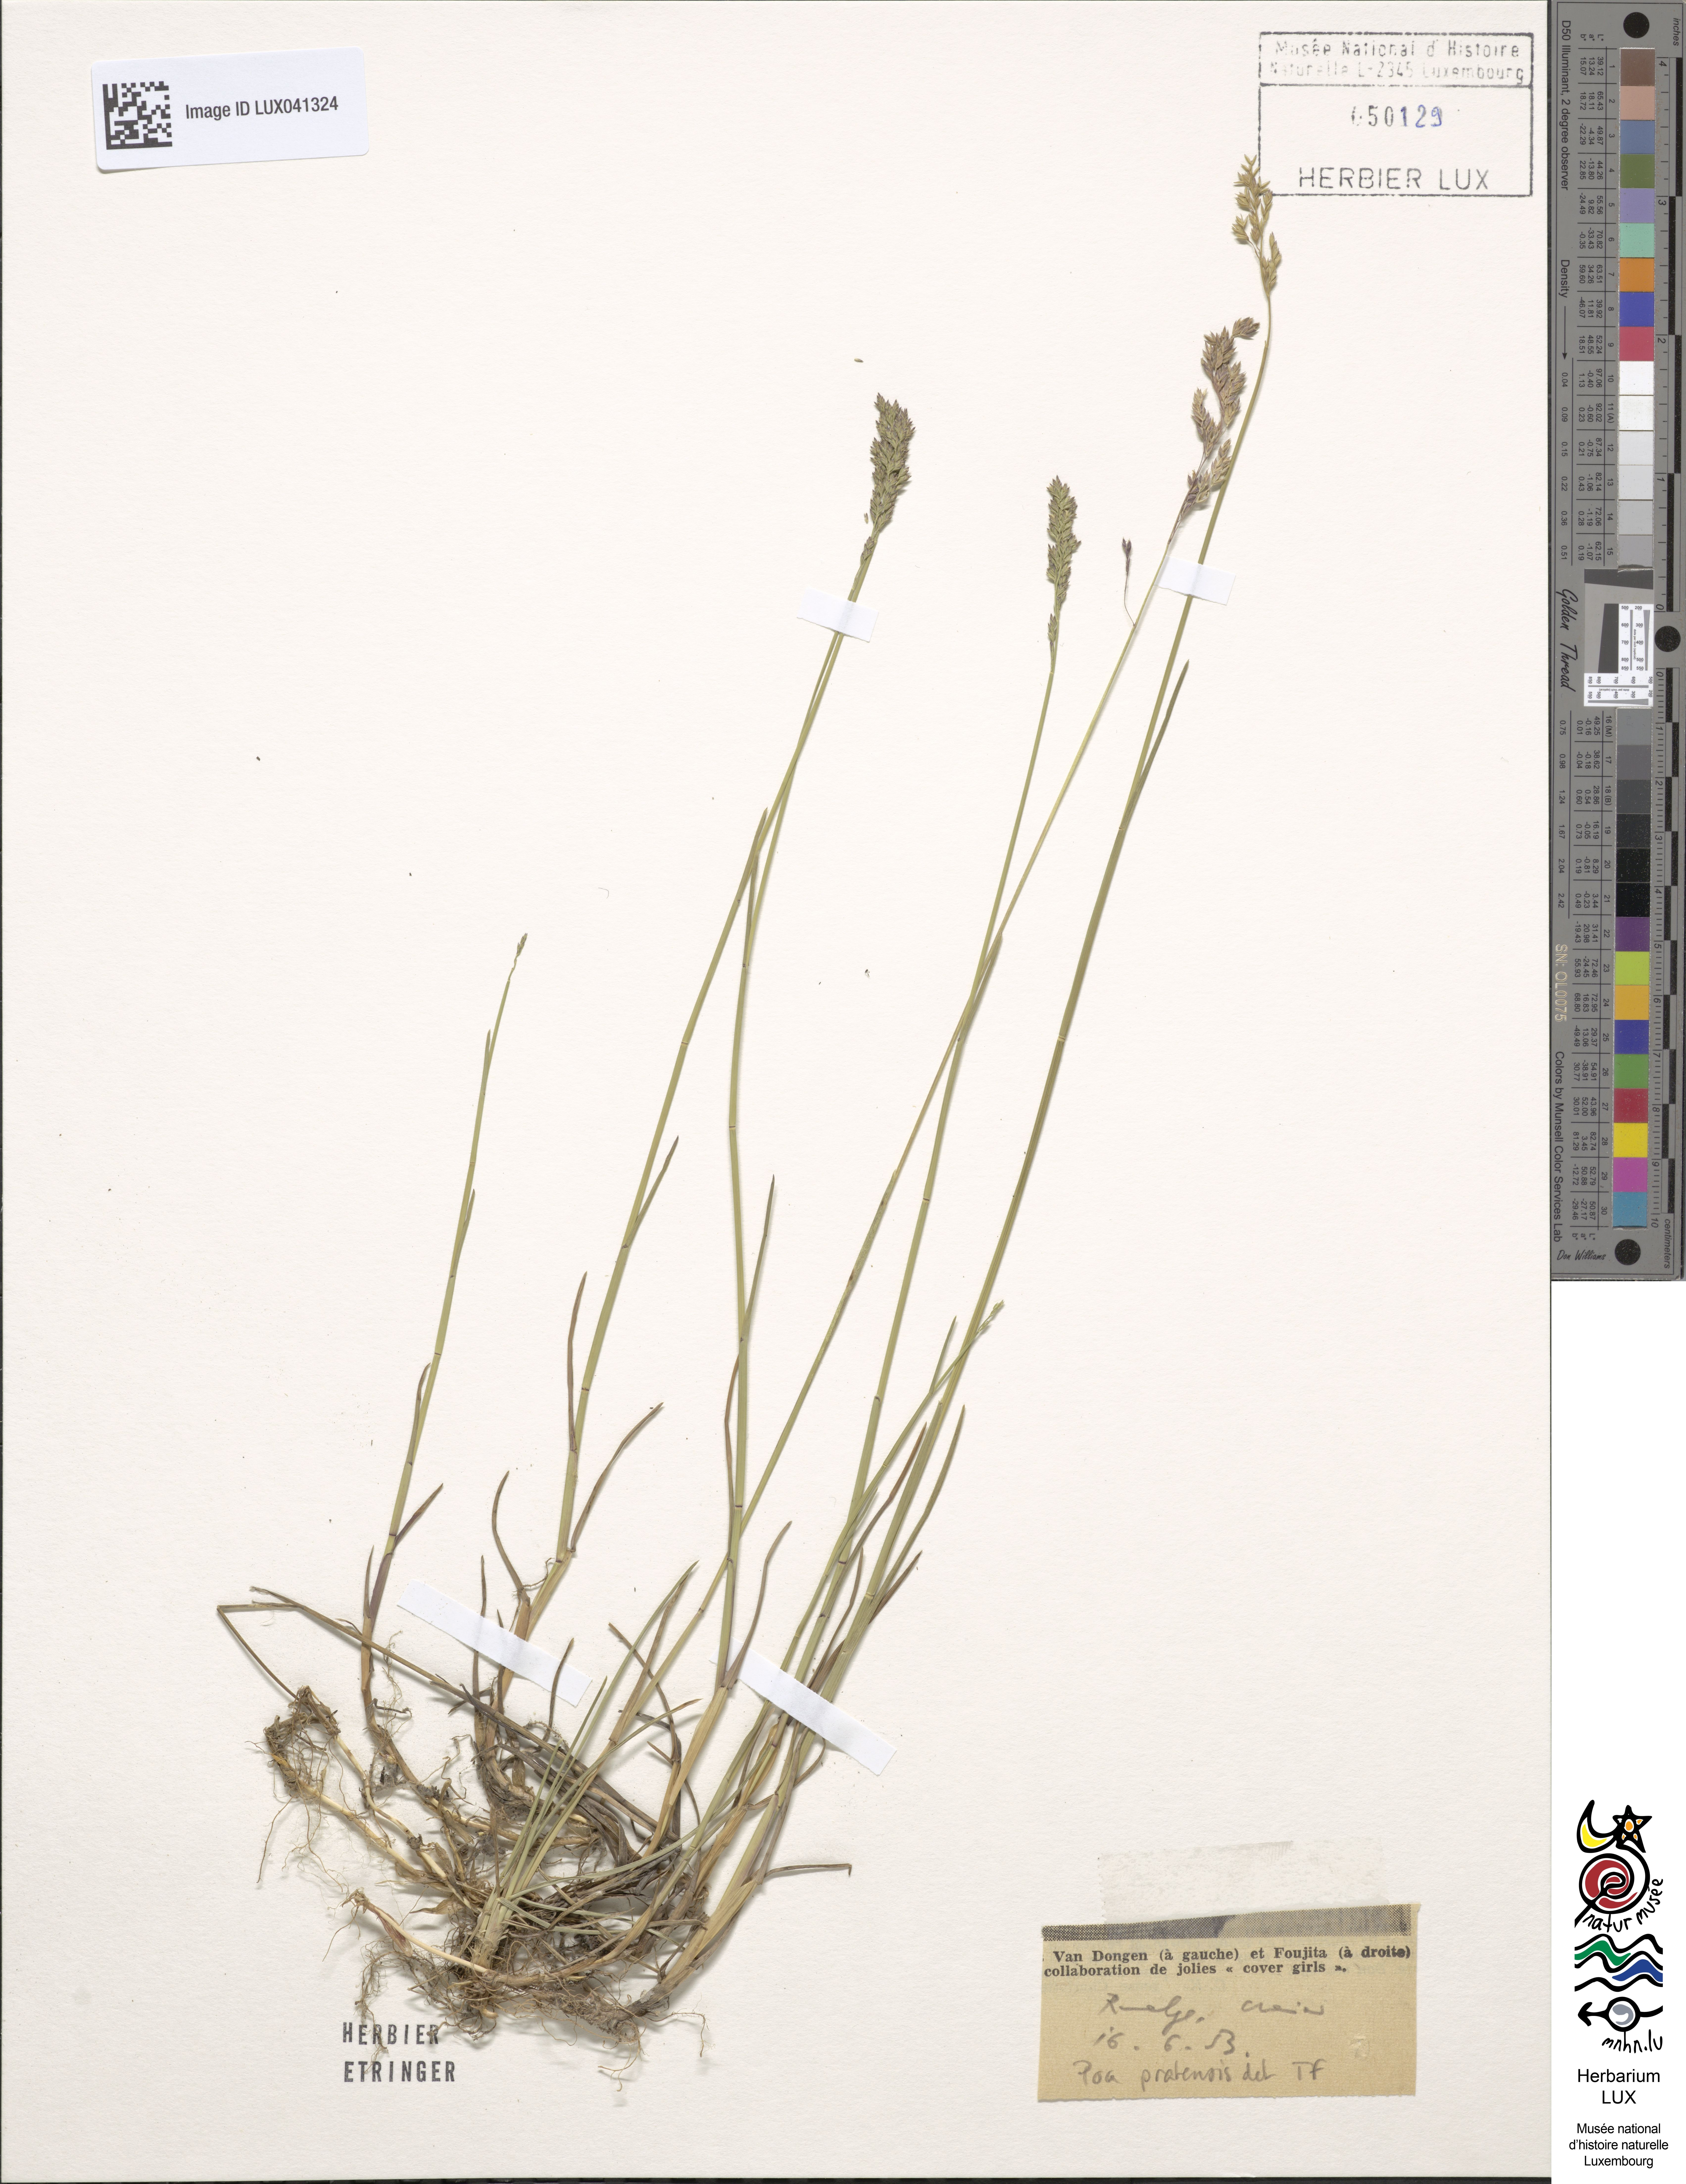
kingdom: Plantae
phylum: Tracheophyta
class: Liliopsida
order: Poales
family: Poaceae
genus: Poa
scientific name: Poa pratensis
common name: Kentucky bluegrass
